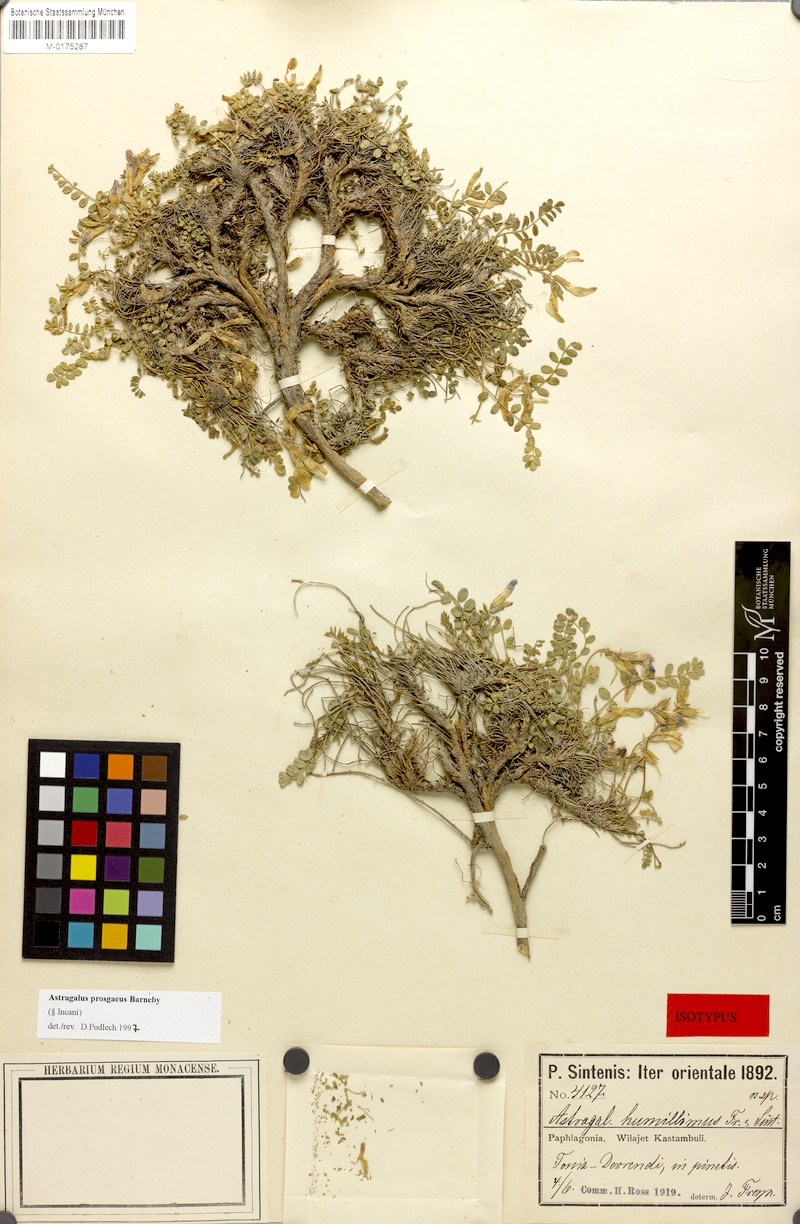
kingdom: Plantae
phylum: Tracheophyta
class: Magnoliopsida
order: Fabales
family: Fabaceae
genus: Astragalus
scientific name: Astragalus prosgaeus
